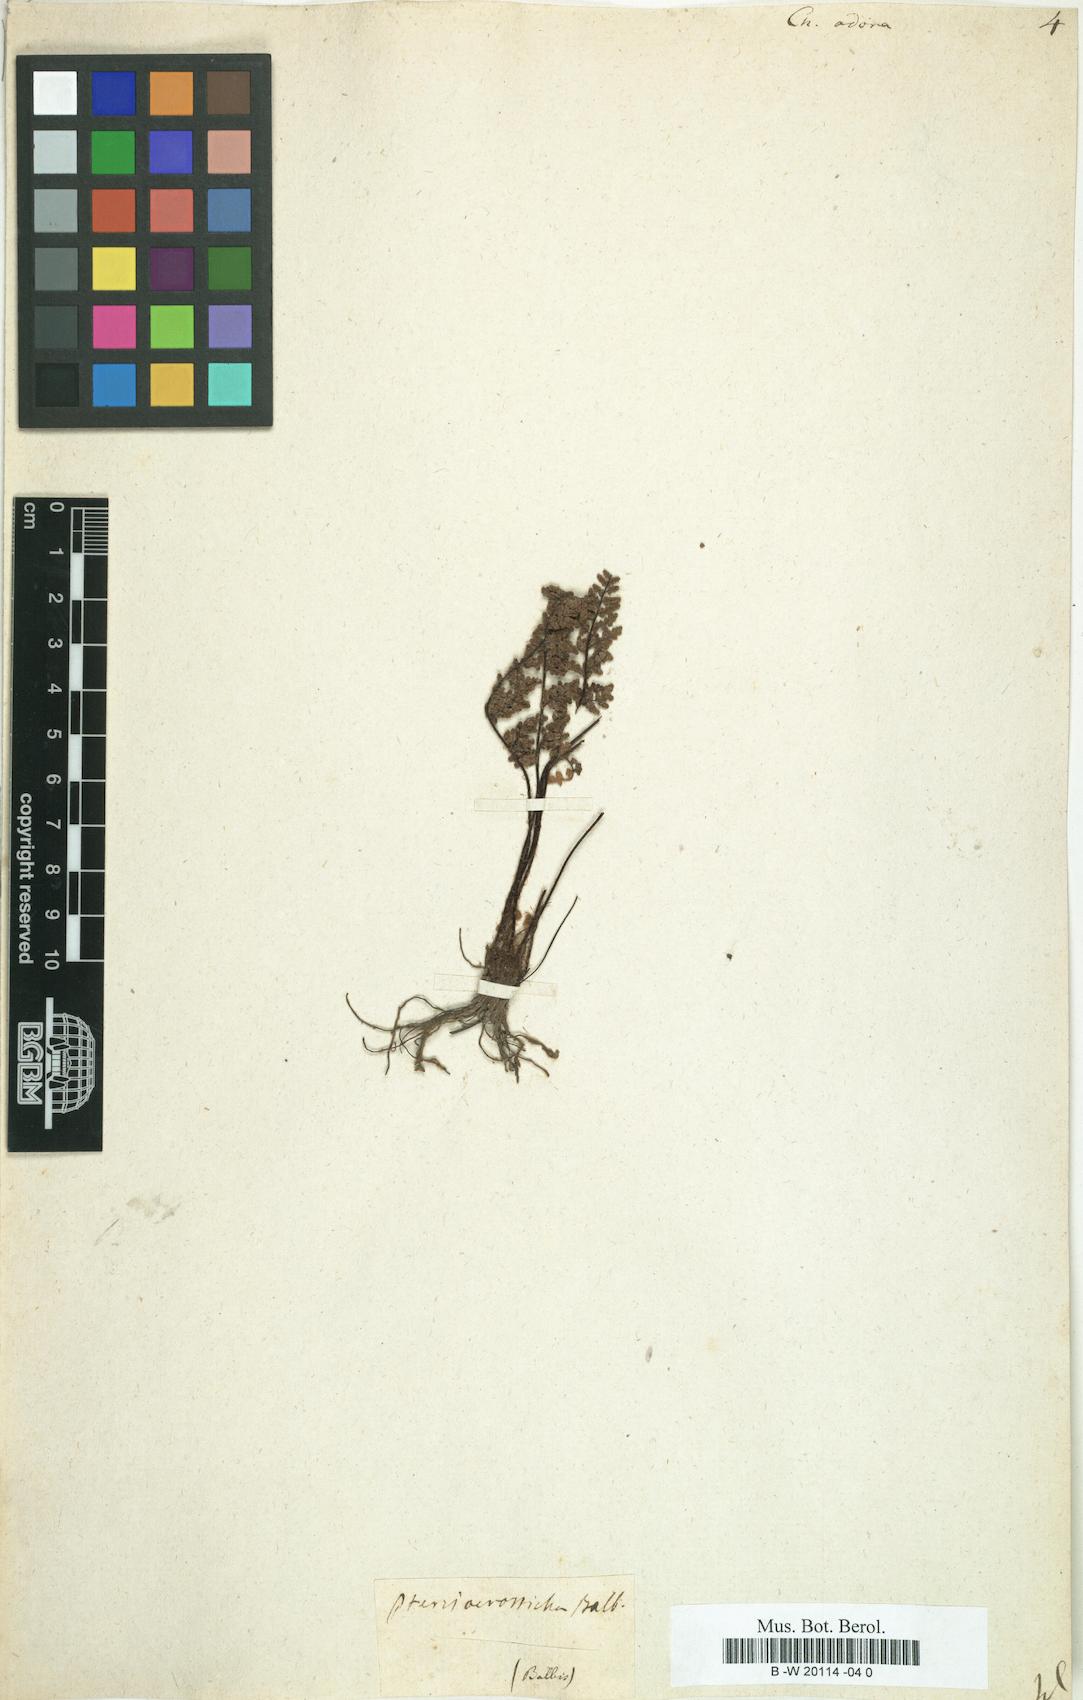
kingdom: Plantae
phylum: Tracheophyta
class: Polypodiopsida
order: Polypodiales
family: Pteridaceae
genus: Oeosporangium
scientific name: Oeosporangium pteridioides
